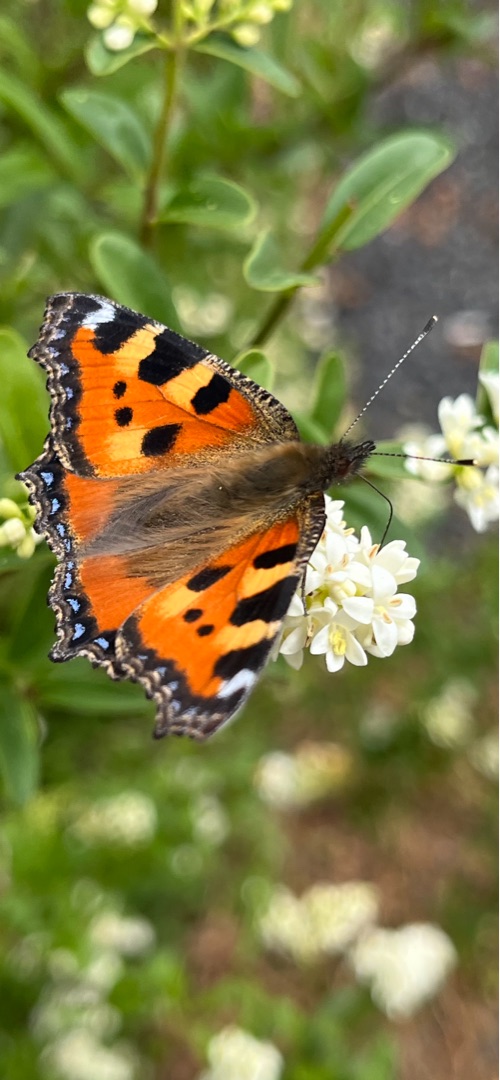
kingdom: Animalia
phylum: Arthropoda
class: Insecta
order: Lepidoptera
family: Nymphalidae
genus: Aglais
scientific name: Aglais urticae
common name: Nældens takvinge
